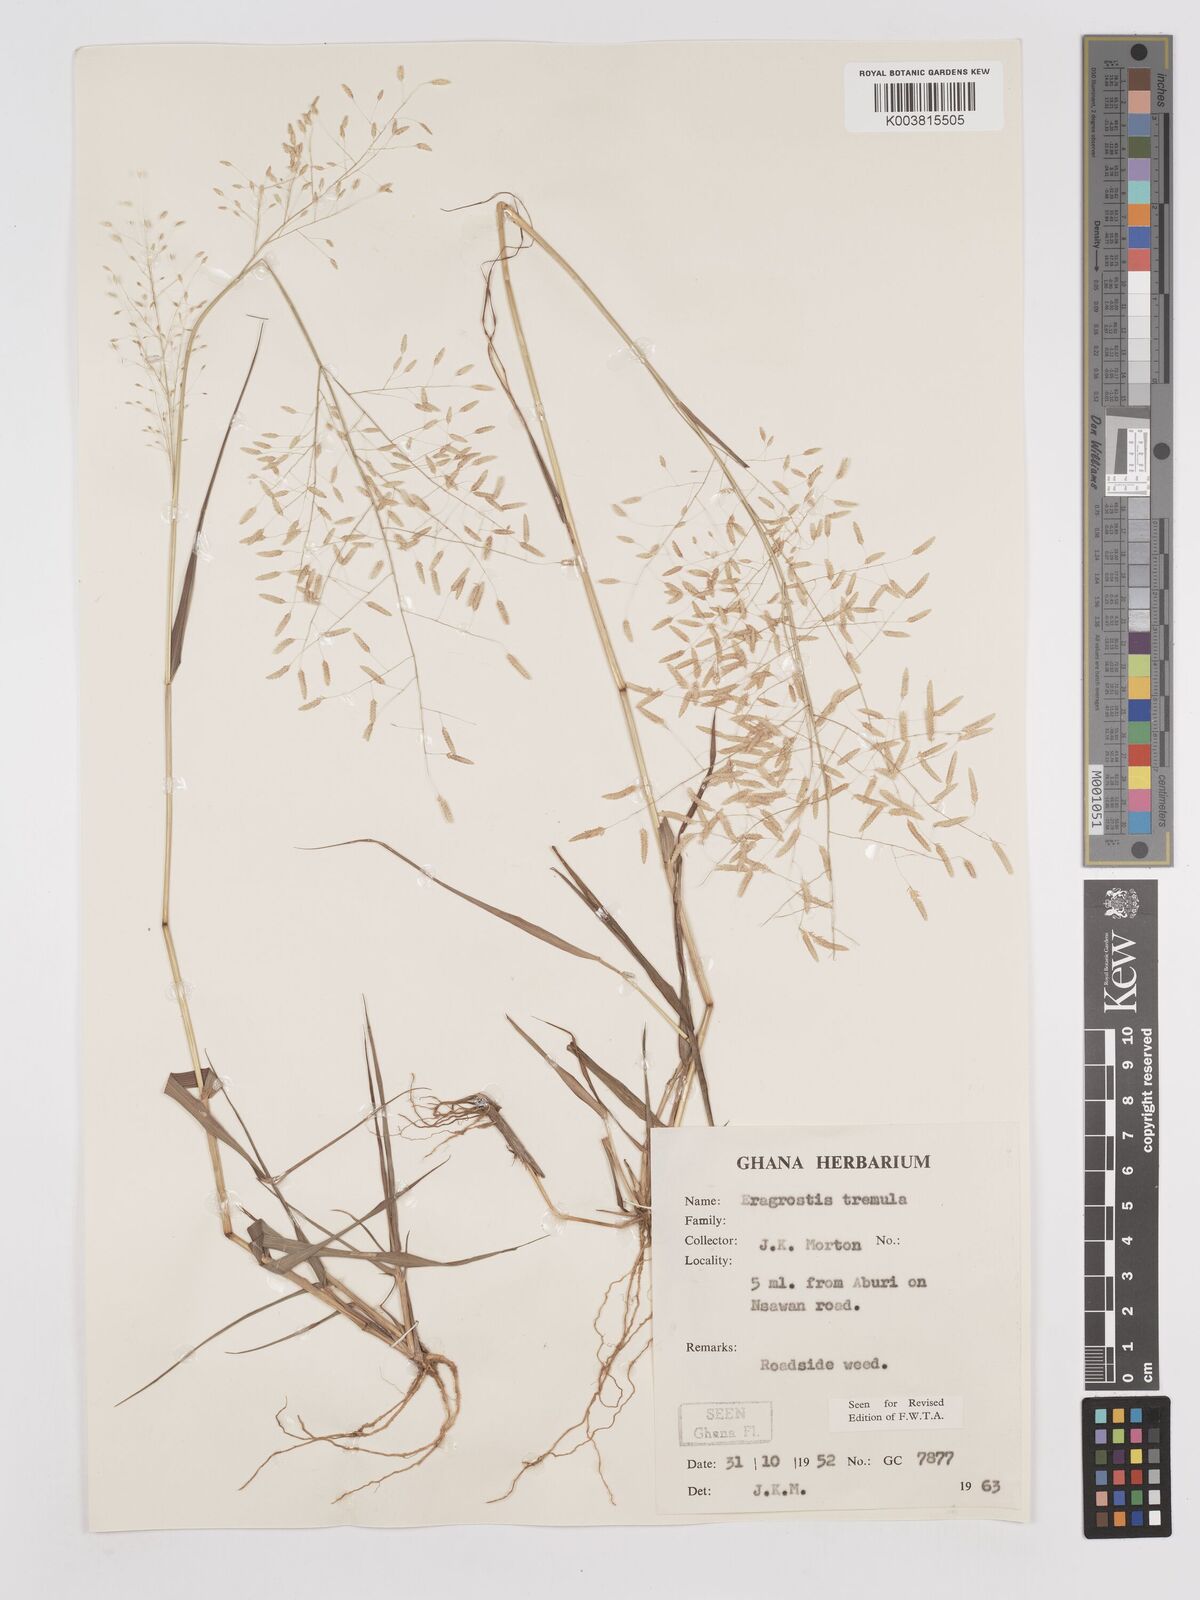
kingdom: Plantae
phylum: Tracheophyta
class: Liliopsida
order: Poales
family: Poaceae
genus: Eragrostis
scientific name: Eragrostis tremula
